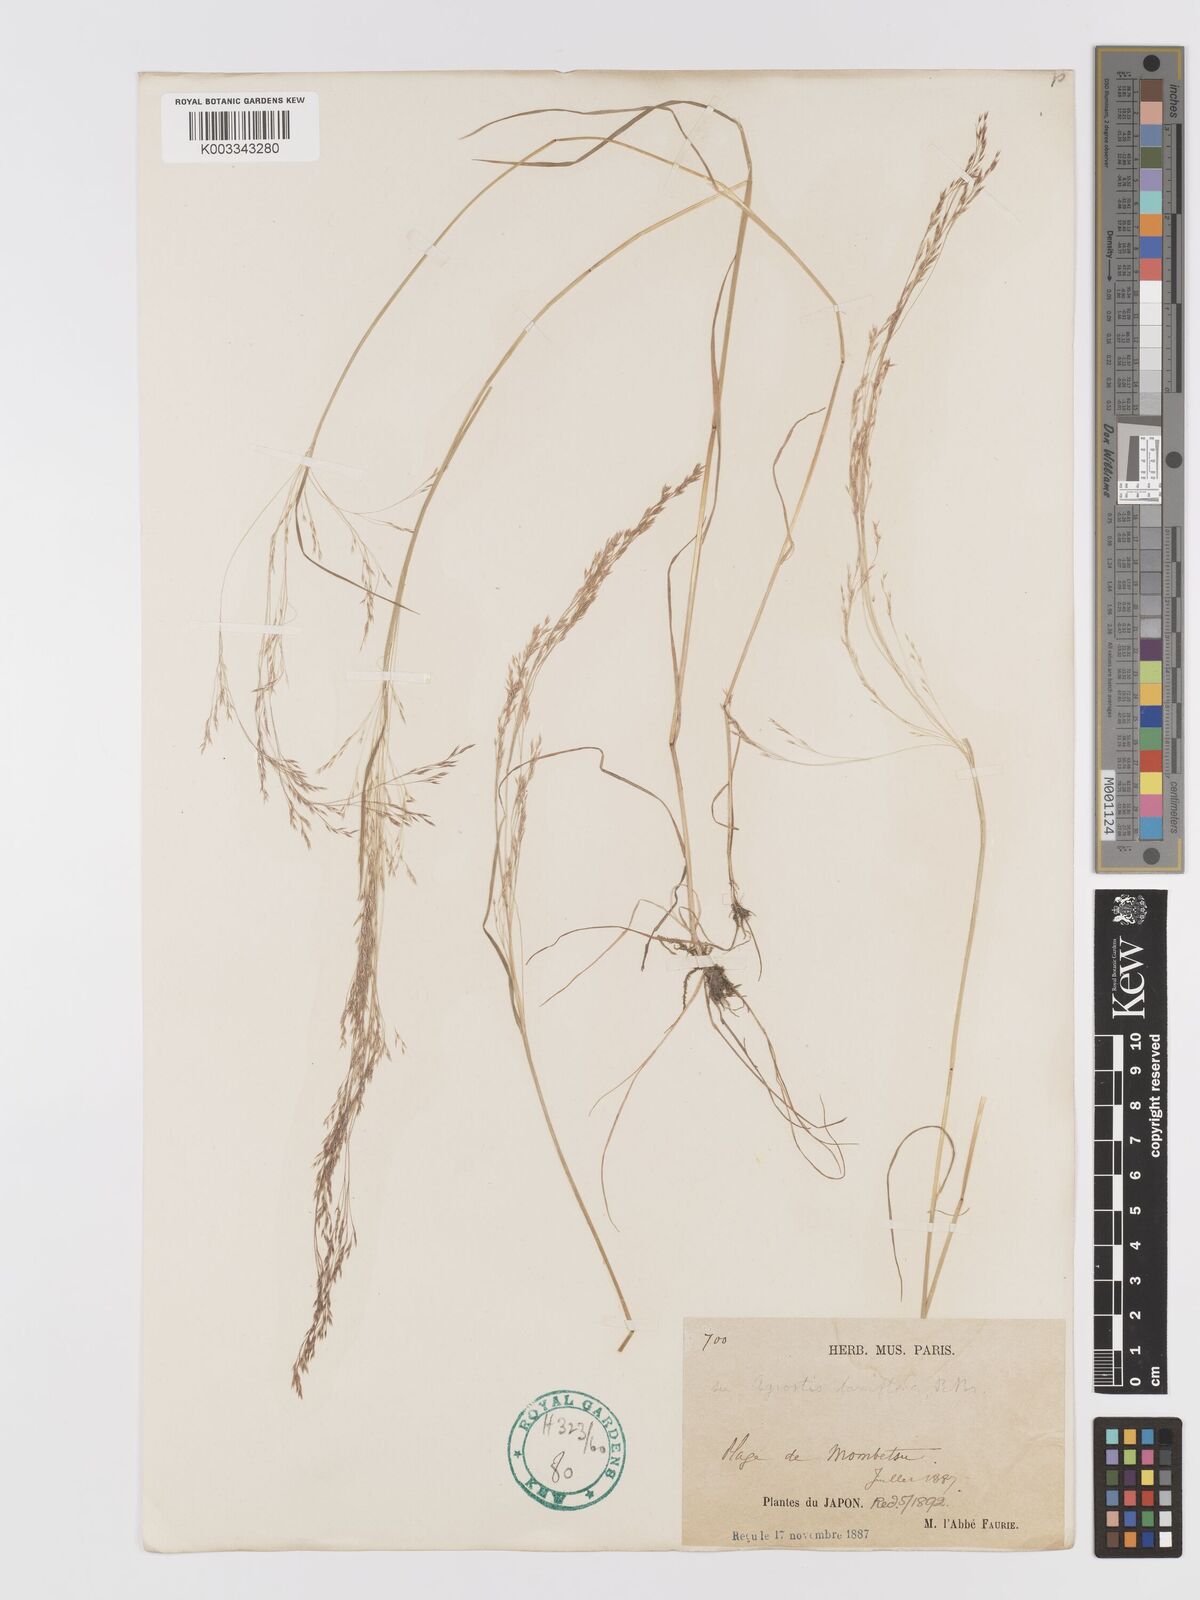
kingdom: Plantae
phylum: Tracheophyta
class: Liliopsida
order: Poales
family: Poaceae
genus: Agrostis
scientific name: Agrostis
